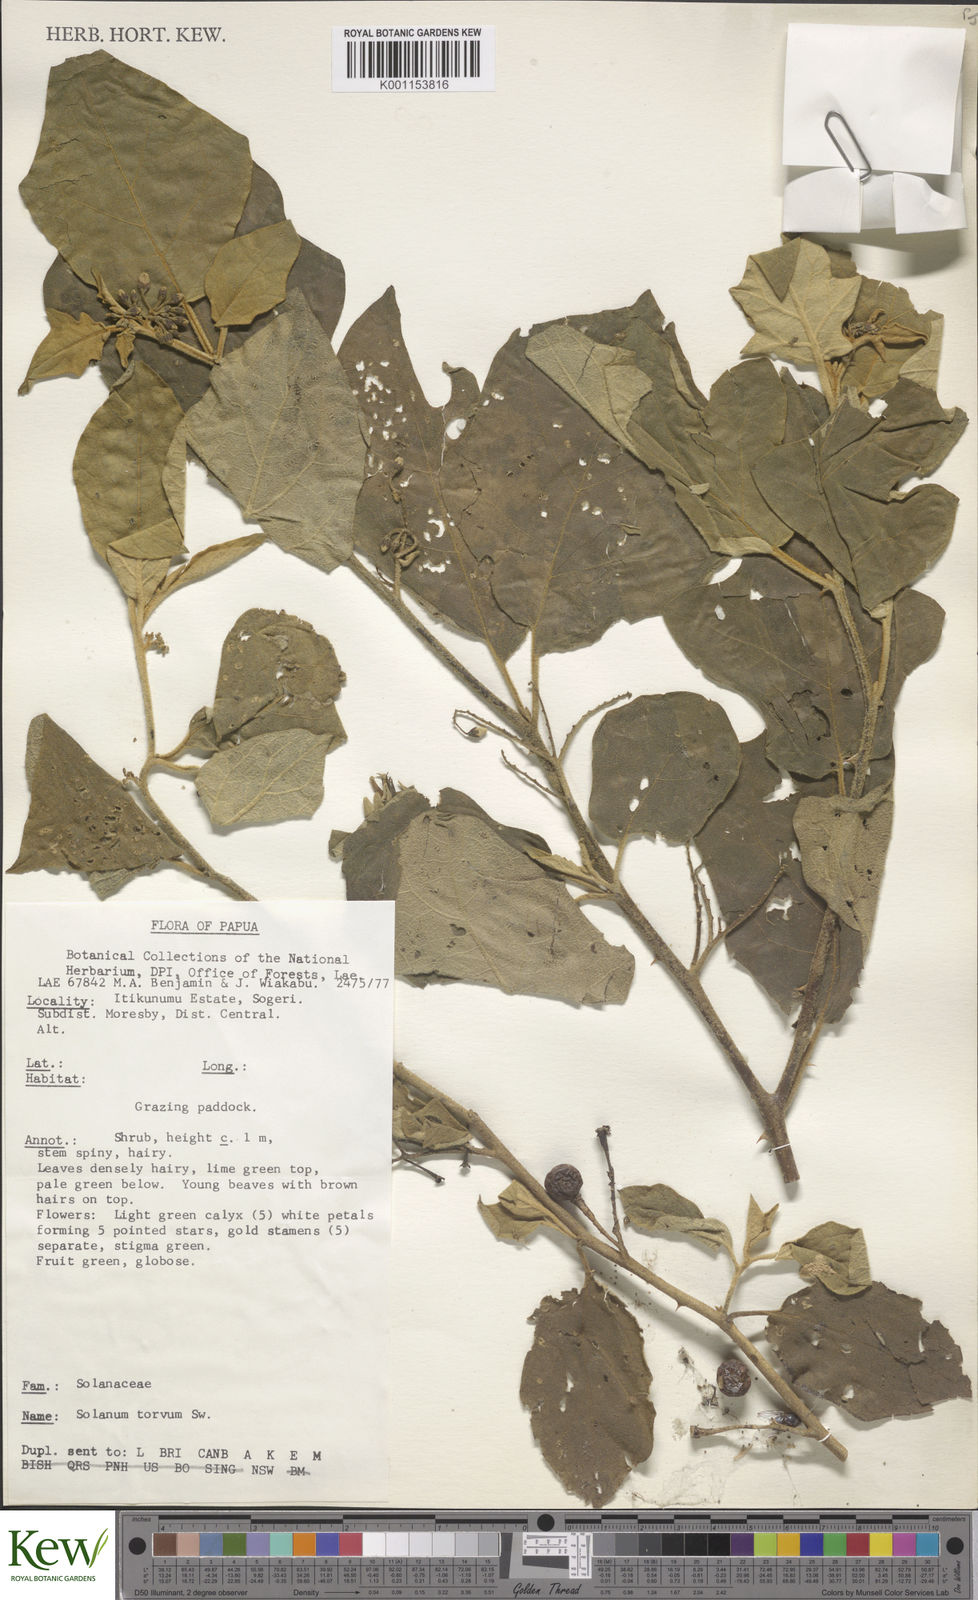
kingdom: Plantae
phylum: Tracheophyta
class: Magnoliopsida
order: Solanales
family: Solanaceae
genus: Solanum
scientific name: Solanum torvum
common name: Turkey berry
